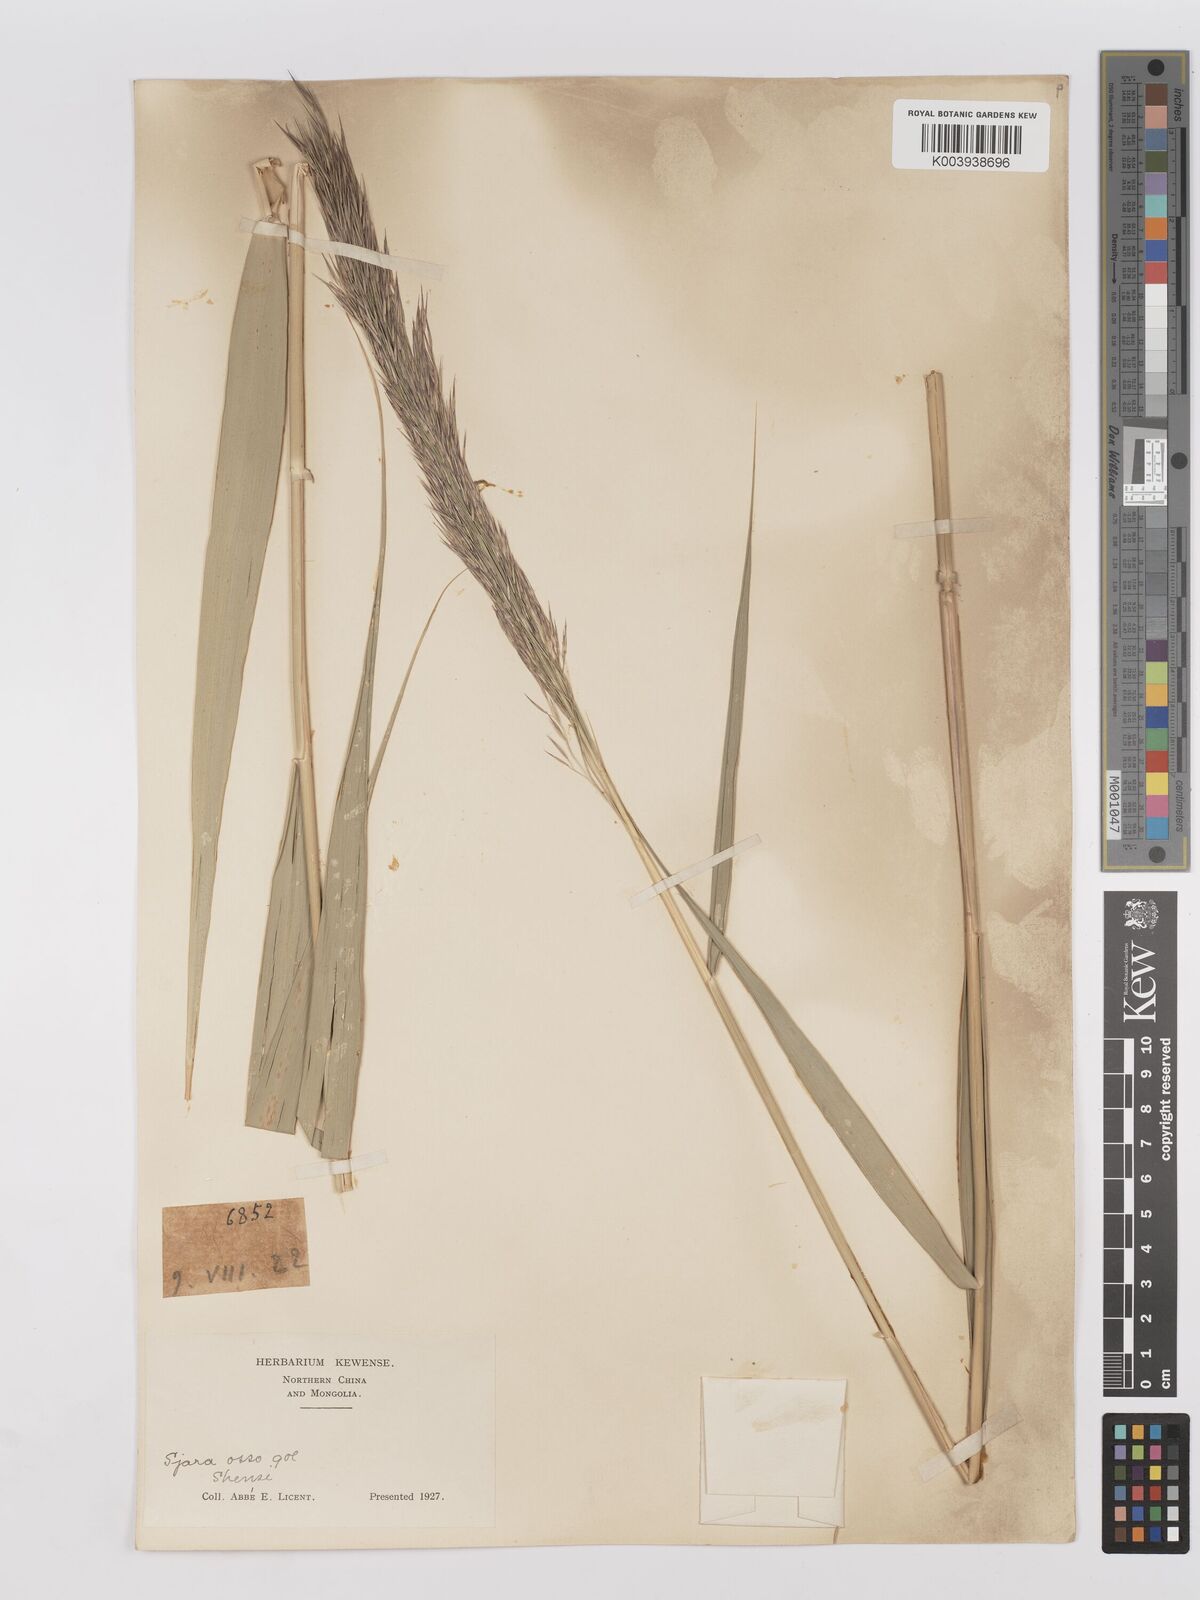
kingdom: Plantae
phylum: Tracheophyta
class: Liliopsida
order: Poales
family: Poaceae
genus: Phragmites
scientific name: Phragmites australis
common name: Common reed
